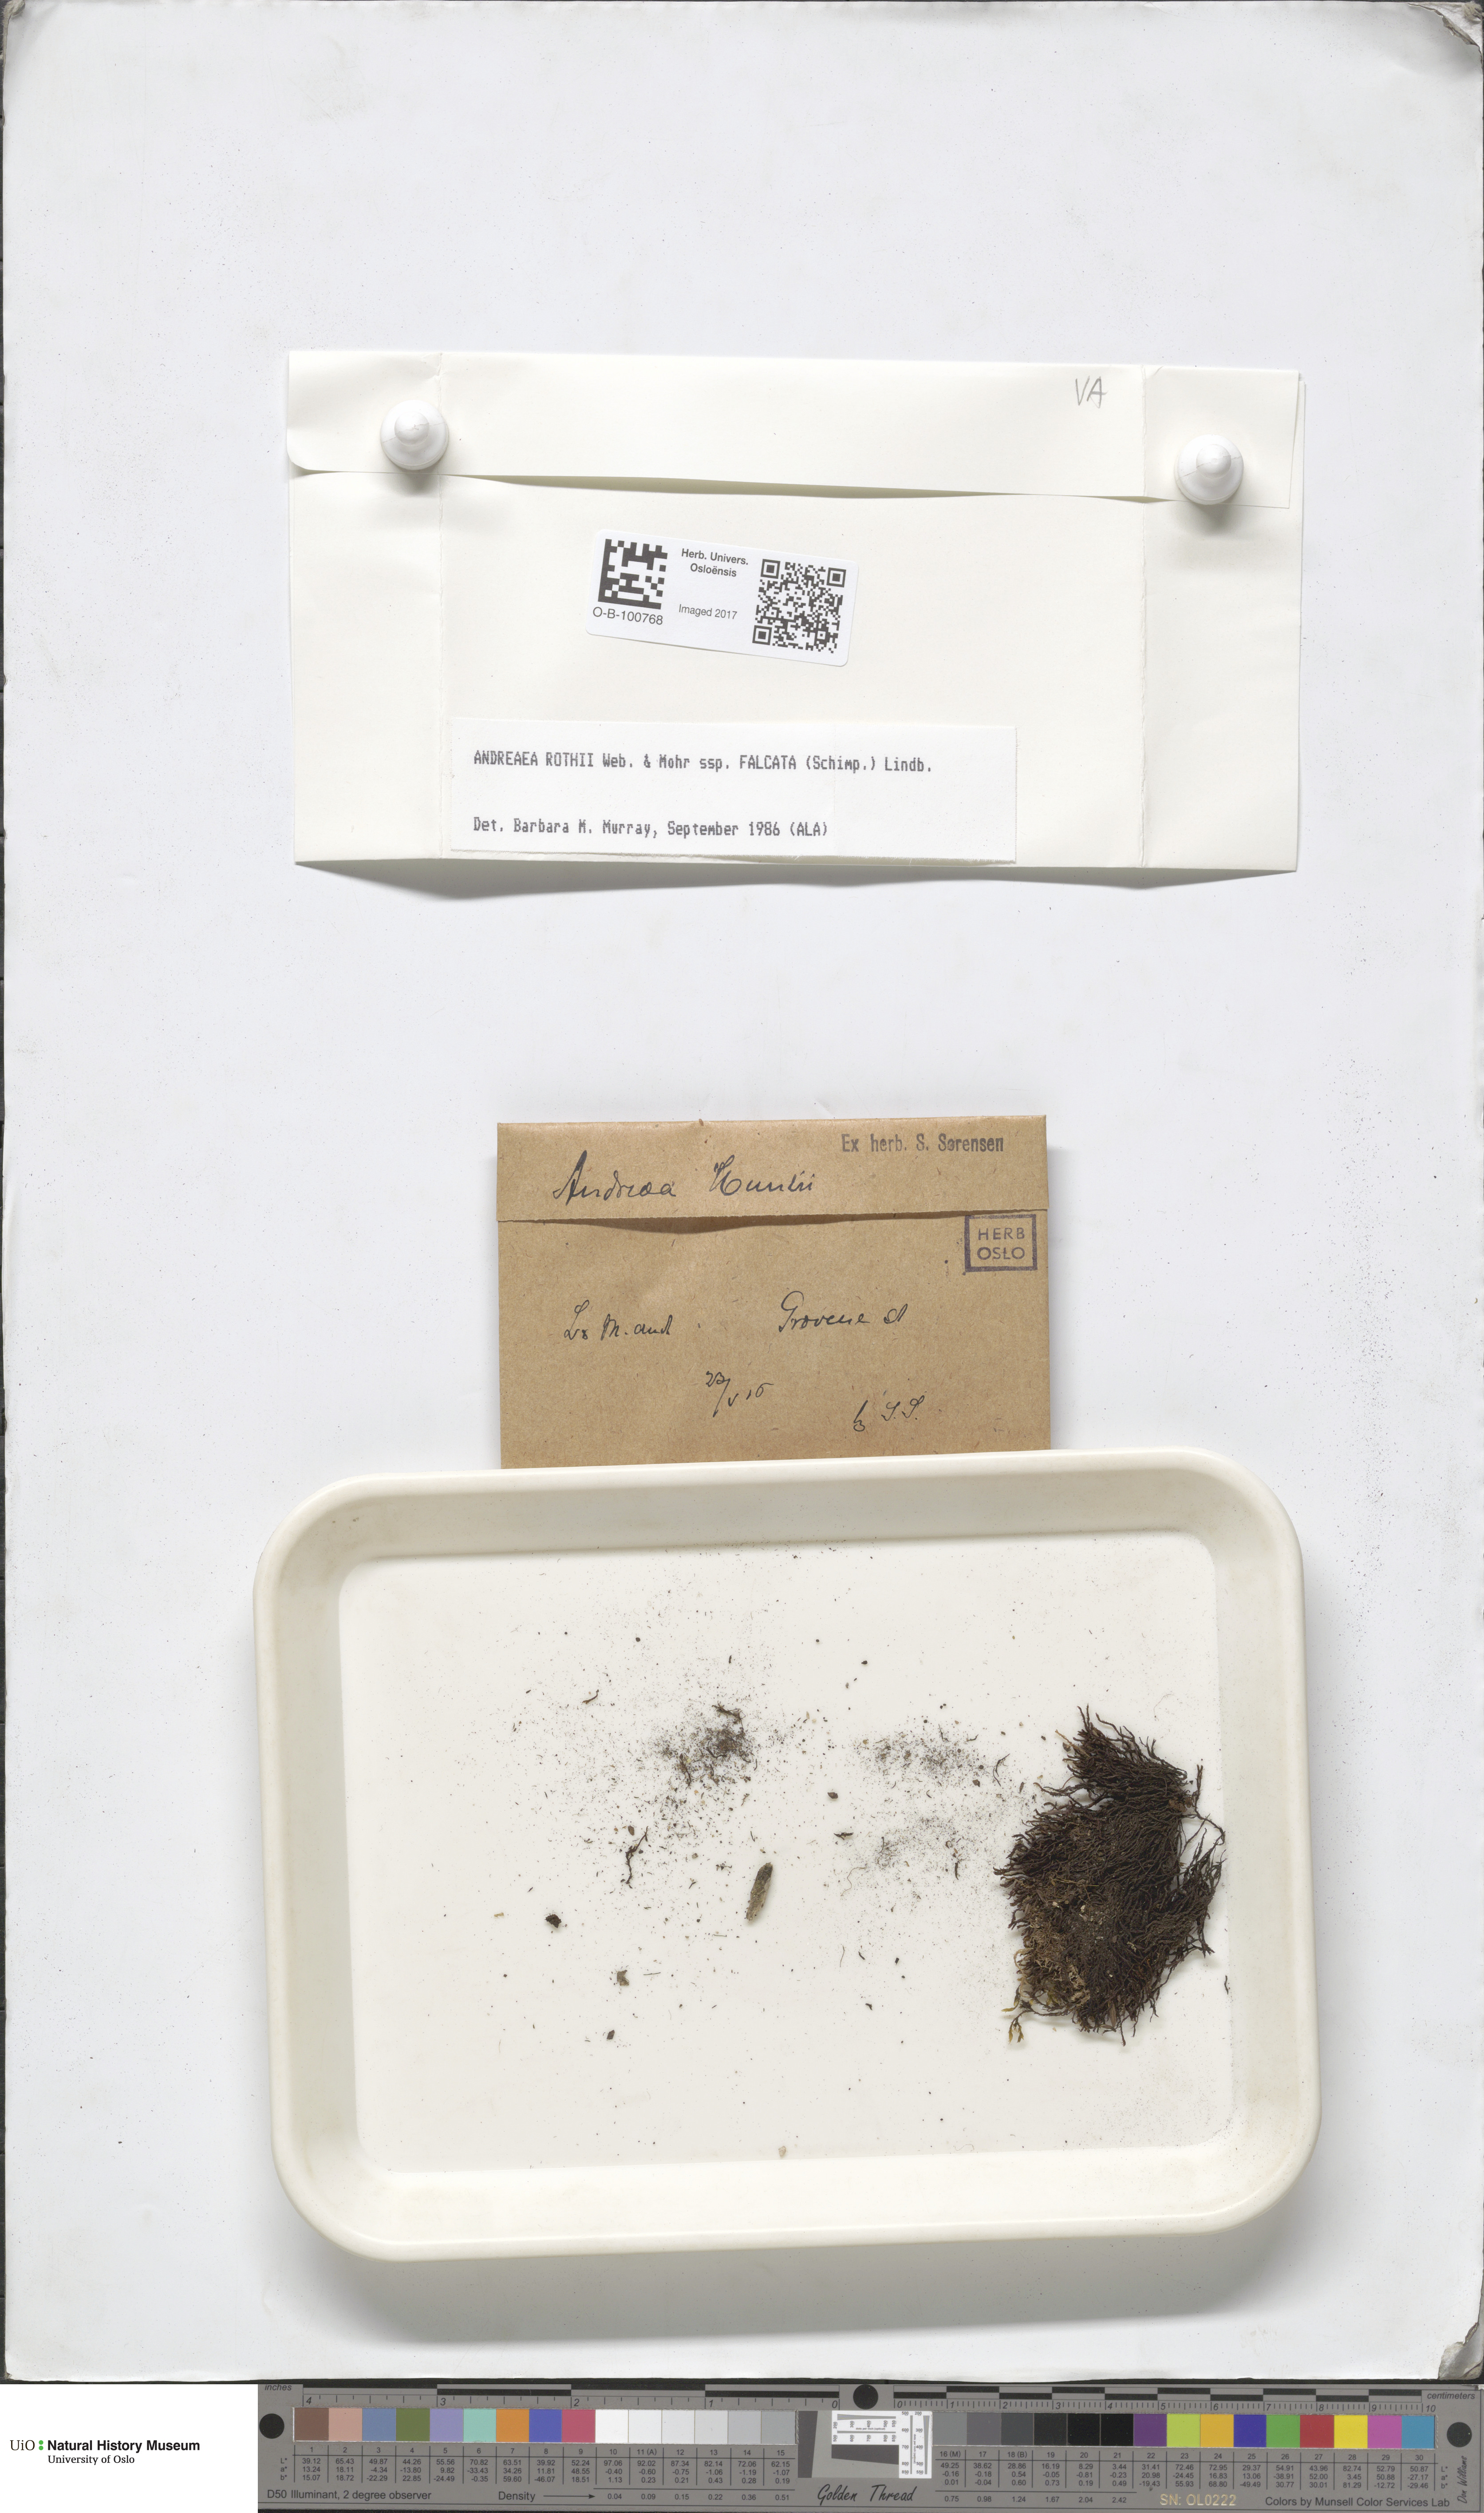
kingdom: Plantae
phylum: Bryophyta
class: Andreaeopsida
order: Andreaeales
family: Andreaeaceae
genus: Andreaea
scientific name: Andreaea rothii
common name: Dusky rock moss
